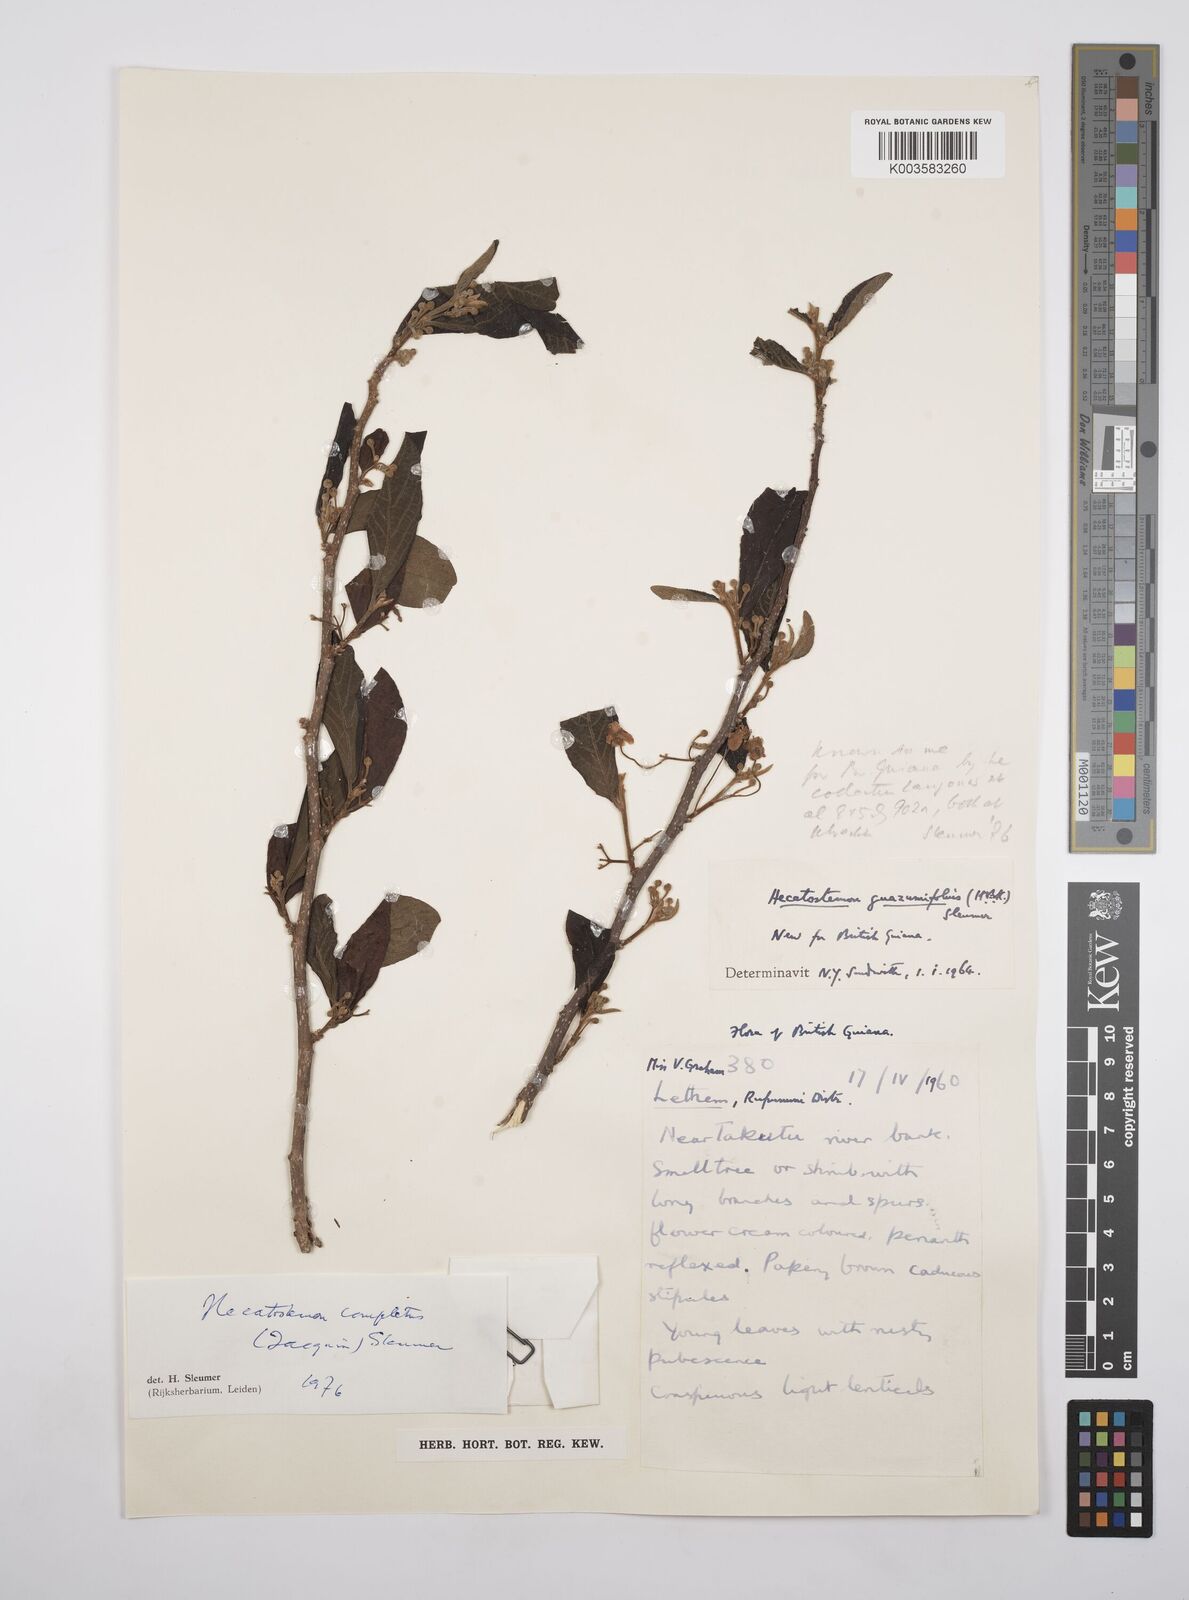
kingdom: Plantae
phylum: Tracheophyta
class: Magnoliopsida
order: Malpighiales
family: Salicaceae
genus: Casearia
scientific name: Casearia completa
